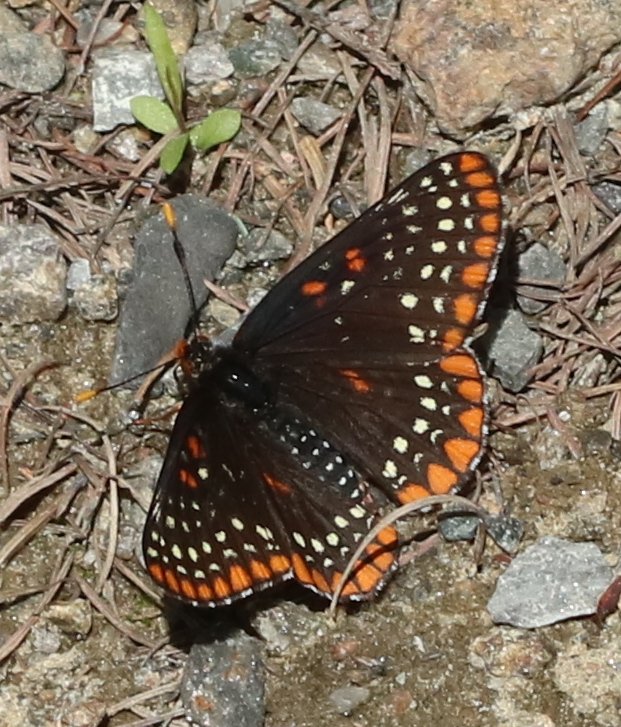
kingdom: Animalia
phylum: Arthropoda
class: Insecta
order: Lepidoptera
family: Nymphalidae
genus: Euphydryas
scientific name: Euphydryas phaeton
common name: Baltimore Checkerspot
